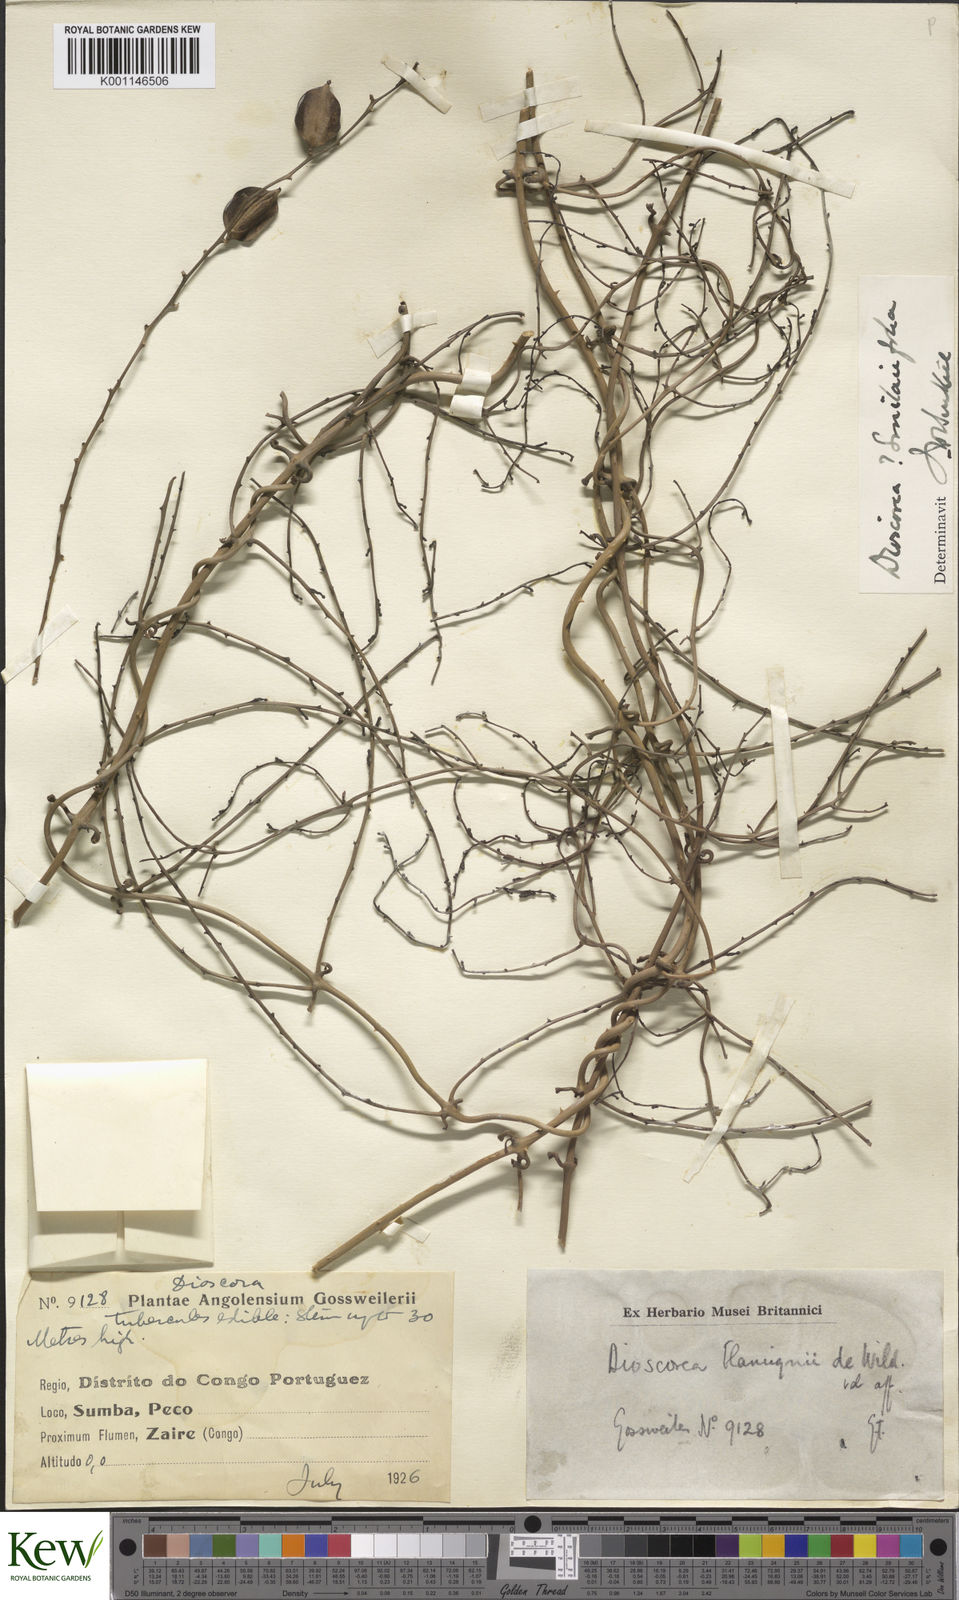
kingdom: Plantae
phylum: Tracheophyta
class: Liliopsida
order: Dioscoreales
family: Dioscoreaceae
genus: Dioscorea
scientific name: Dioscorea smilacifolia
